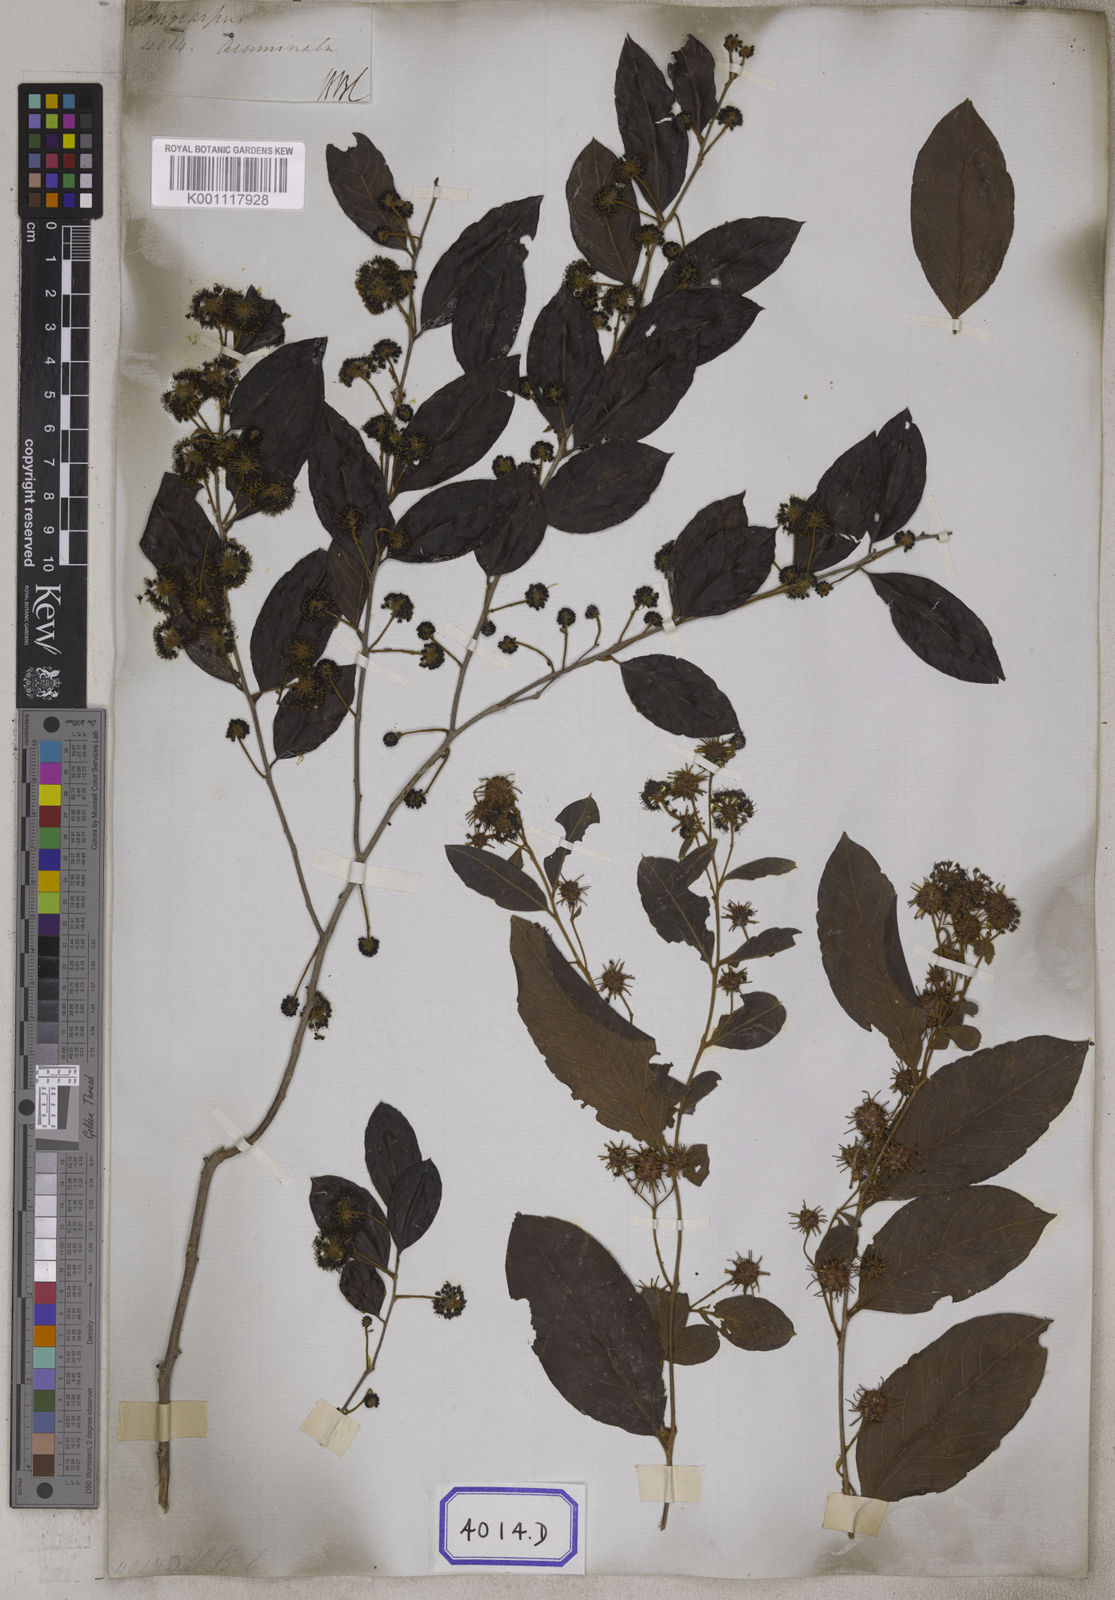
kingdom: Plantae
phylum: Tracheophyta
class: Magnoliopsida
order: Myrtales
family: Combretaceae
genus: Anogeissus
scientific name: Anogeissus
